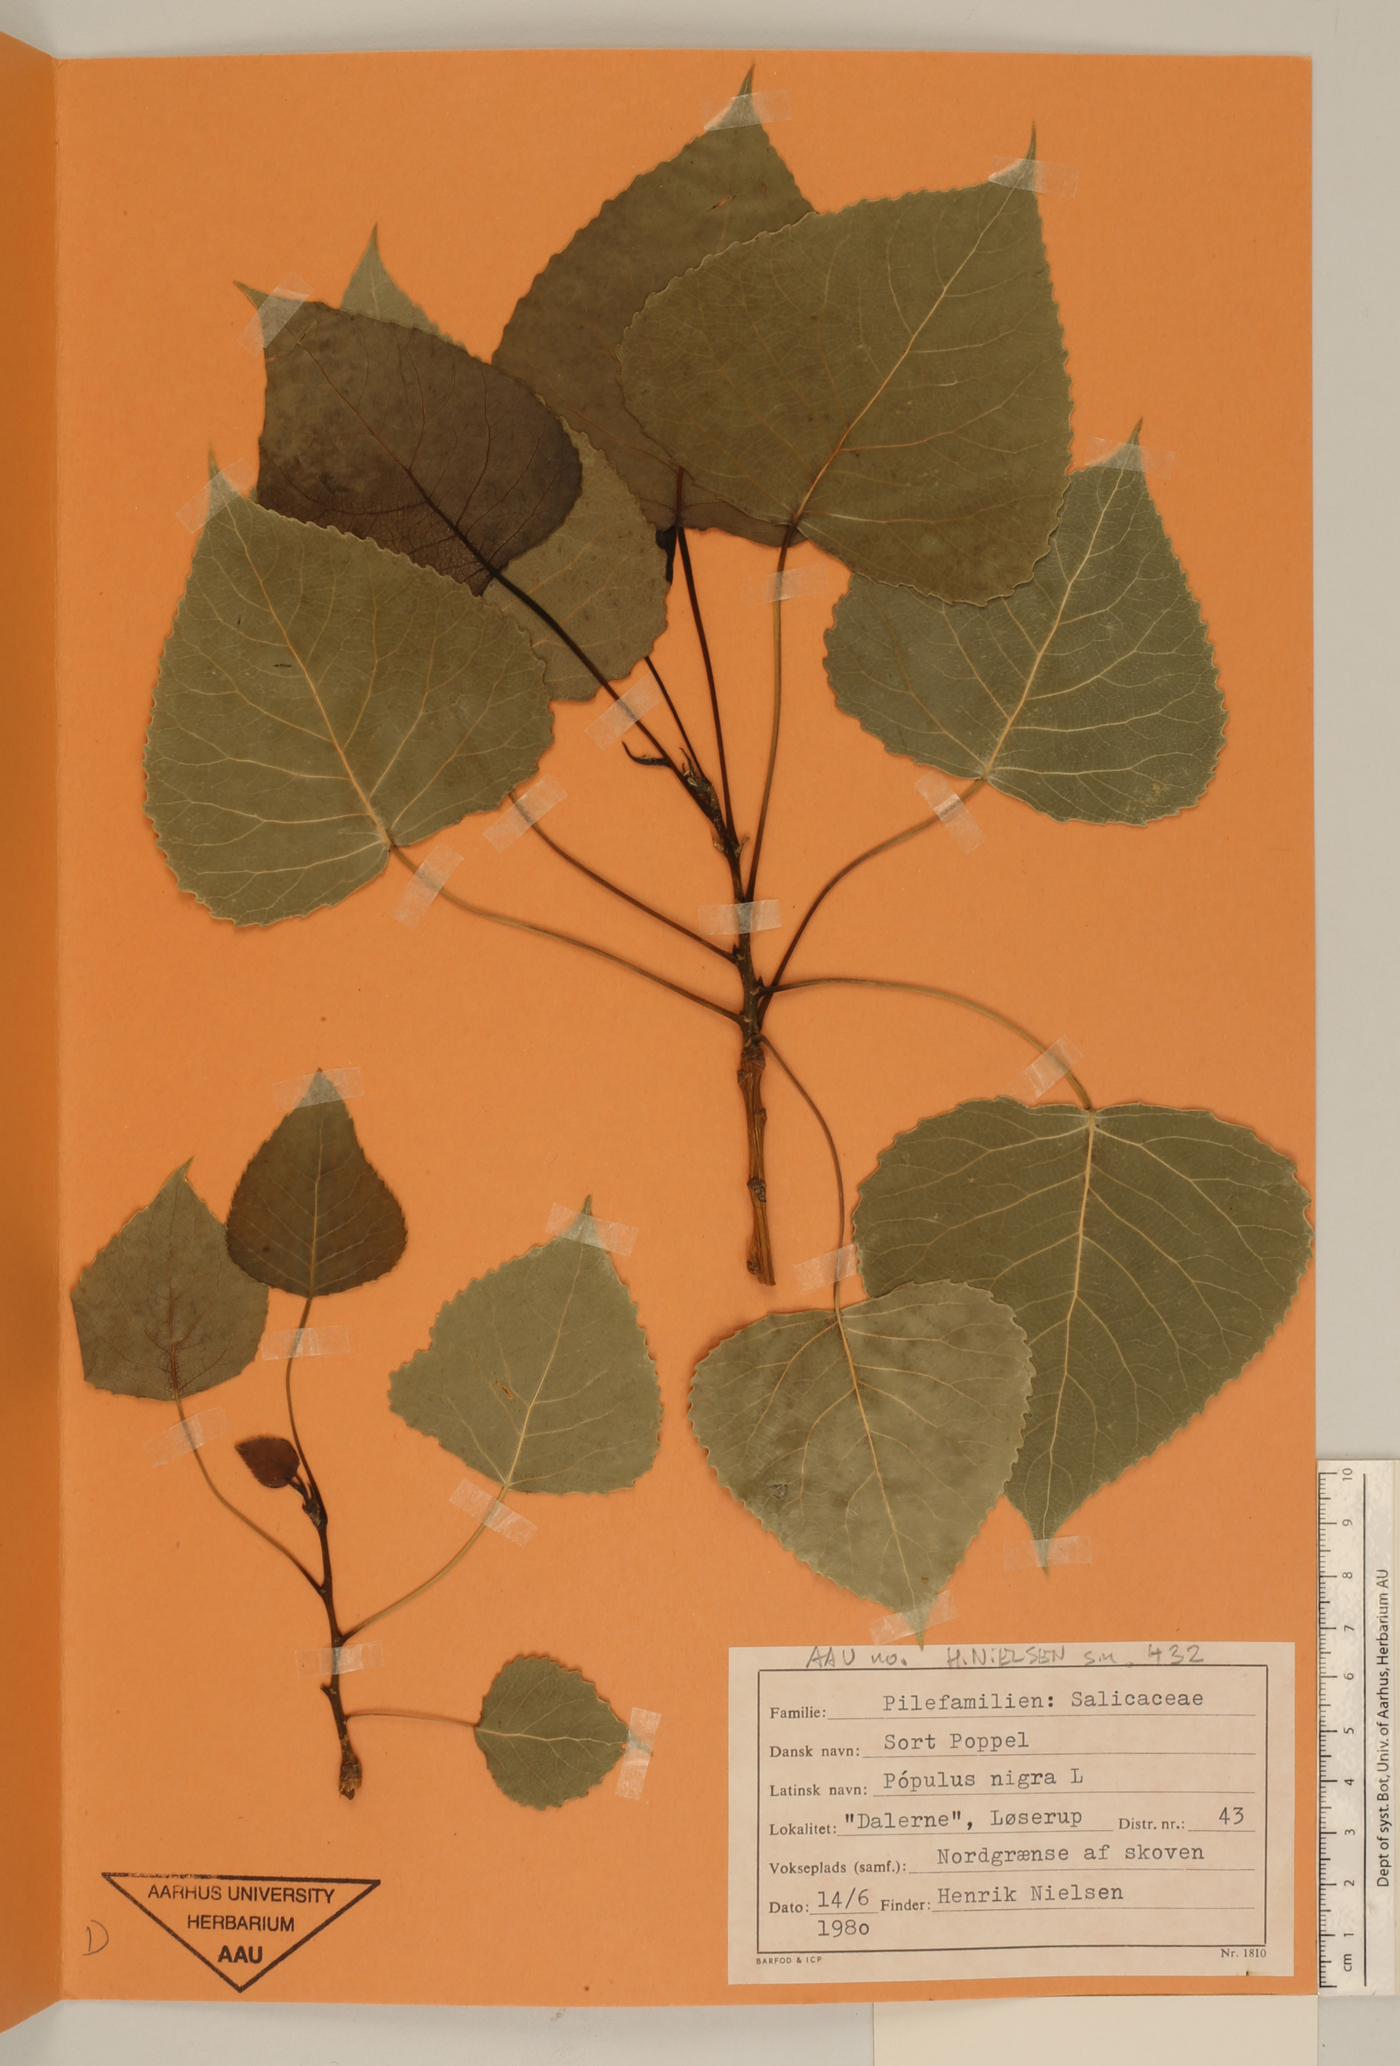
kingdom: Plantae
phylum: Tracheophyta
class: Magnoliopsida
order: Malpighiales
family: Salicaceae
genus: Populus
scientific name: Populus nigra
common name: Black poplar
